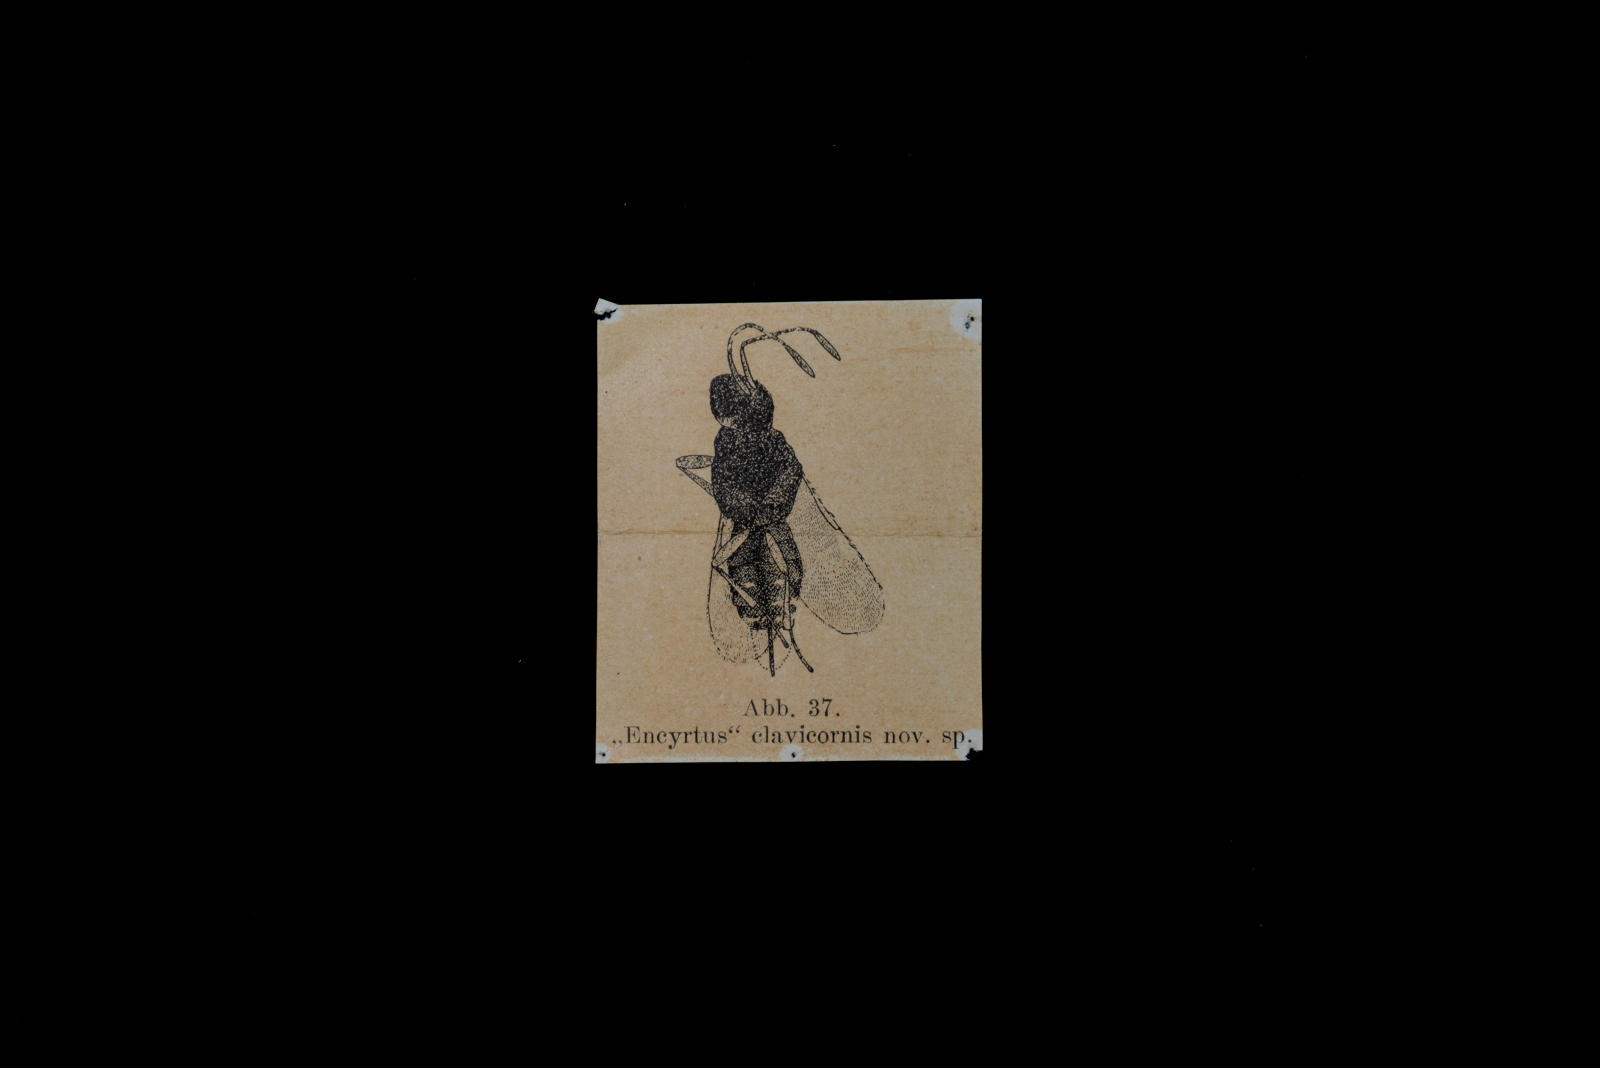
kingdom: Animalia
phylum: Arthropoda
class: Insecta
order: Hymenoptera
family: Encyrtidae
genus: Encyrtus
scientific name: Encyrtus clavicornis
